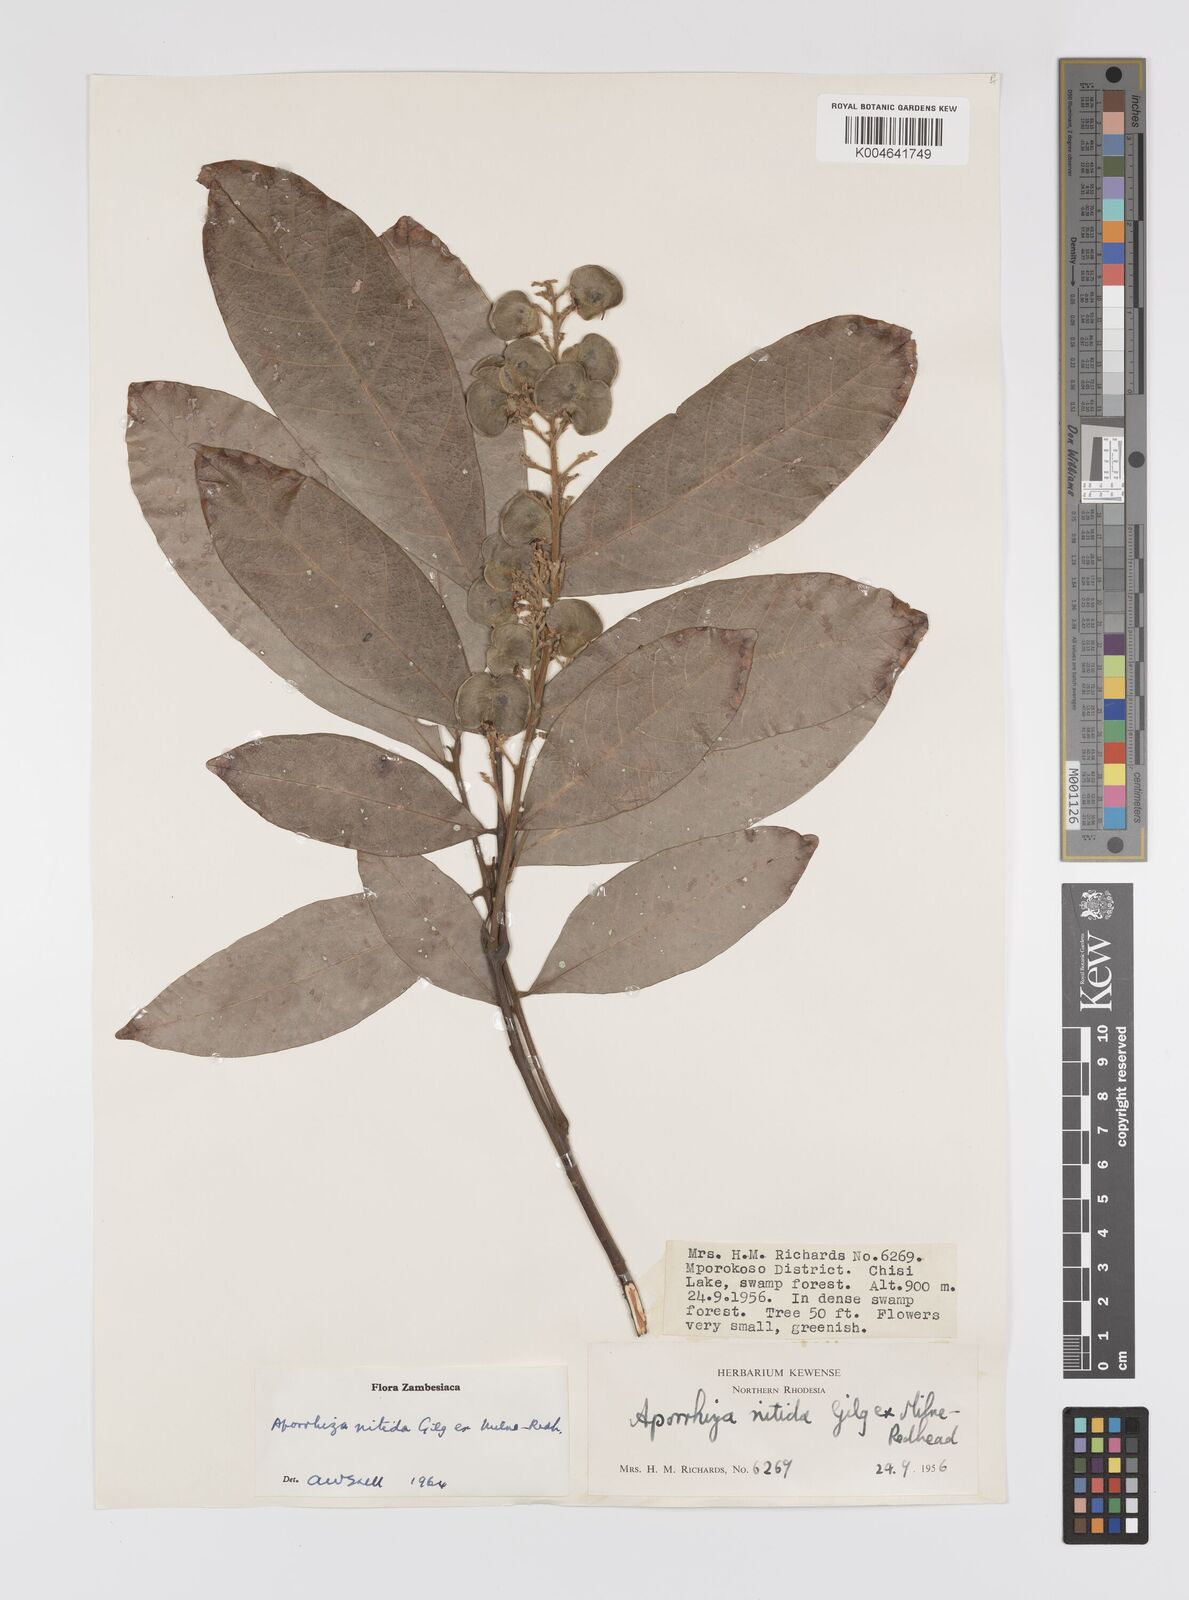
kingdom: Plantae
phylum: Tracheophyta
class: Magnoliopsida
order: Sapindales
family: Sapindaceae
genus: Aporrhiza
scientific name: Aporrhiza paniculata
